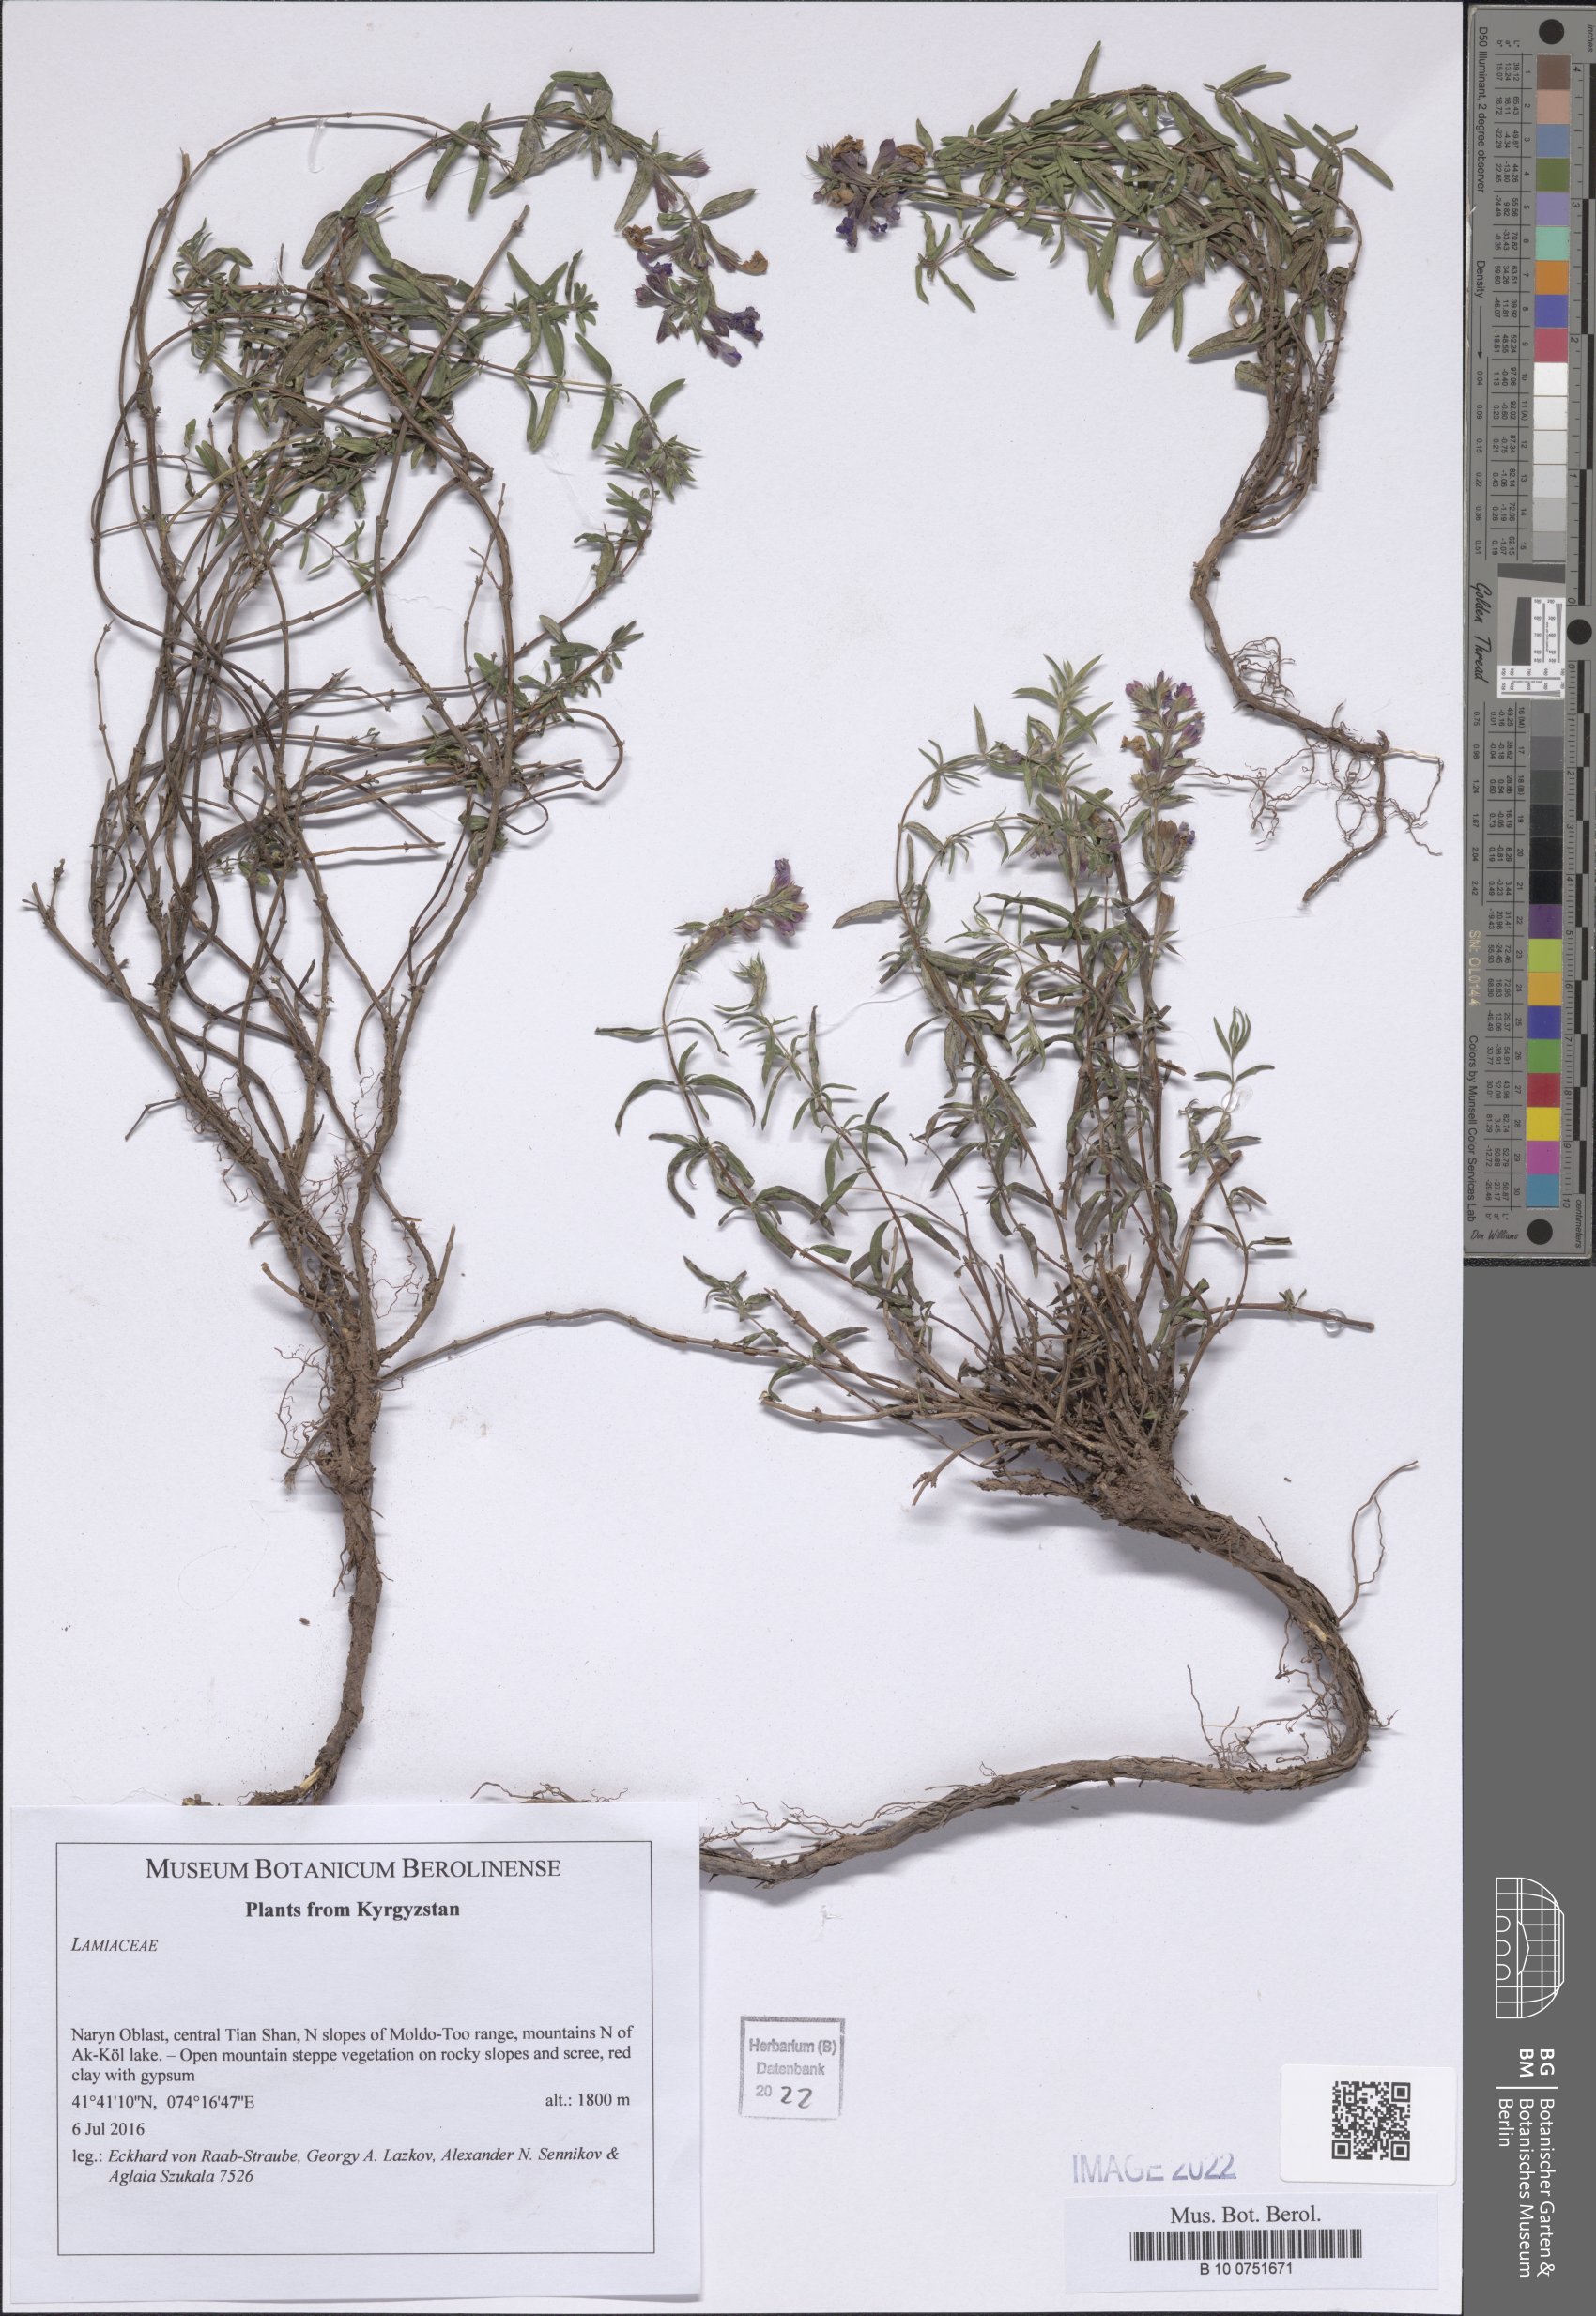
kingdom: Plantae
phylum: Tracheophyta
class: Magnoliopsida
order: Lamiales
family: Lamiaceae
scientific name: Lamiaceae
